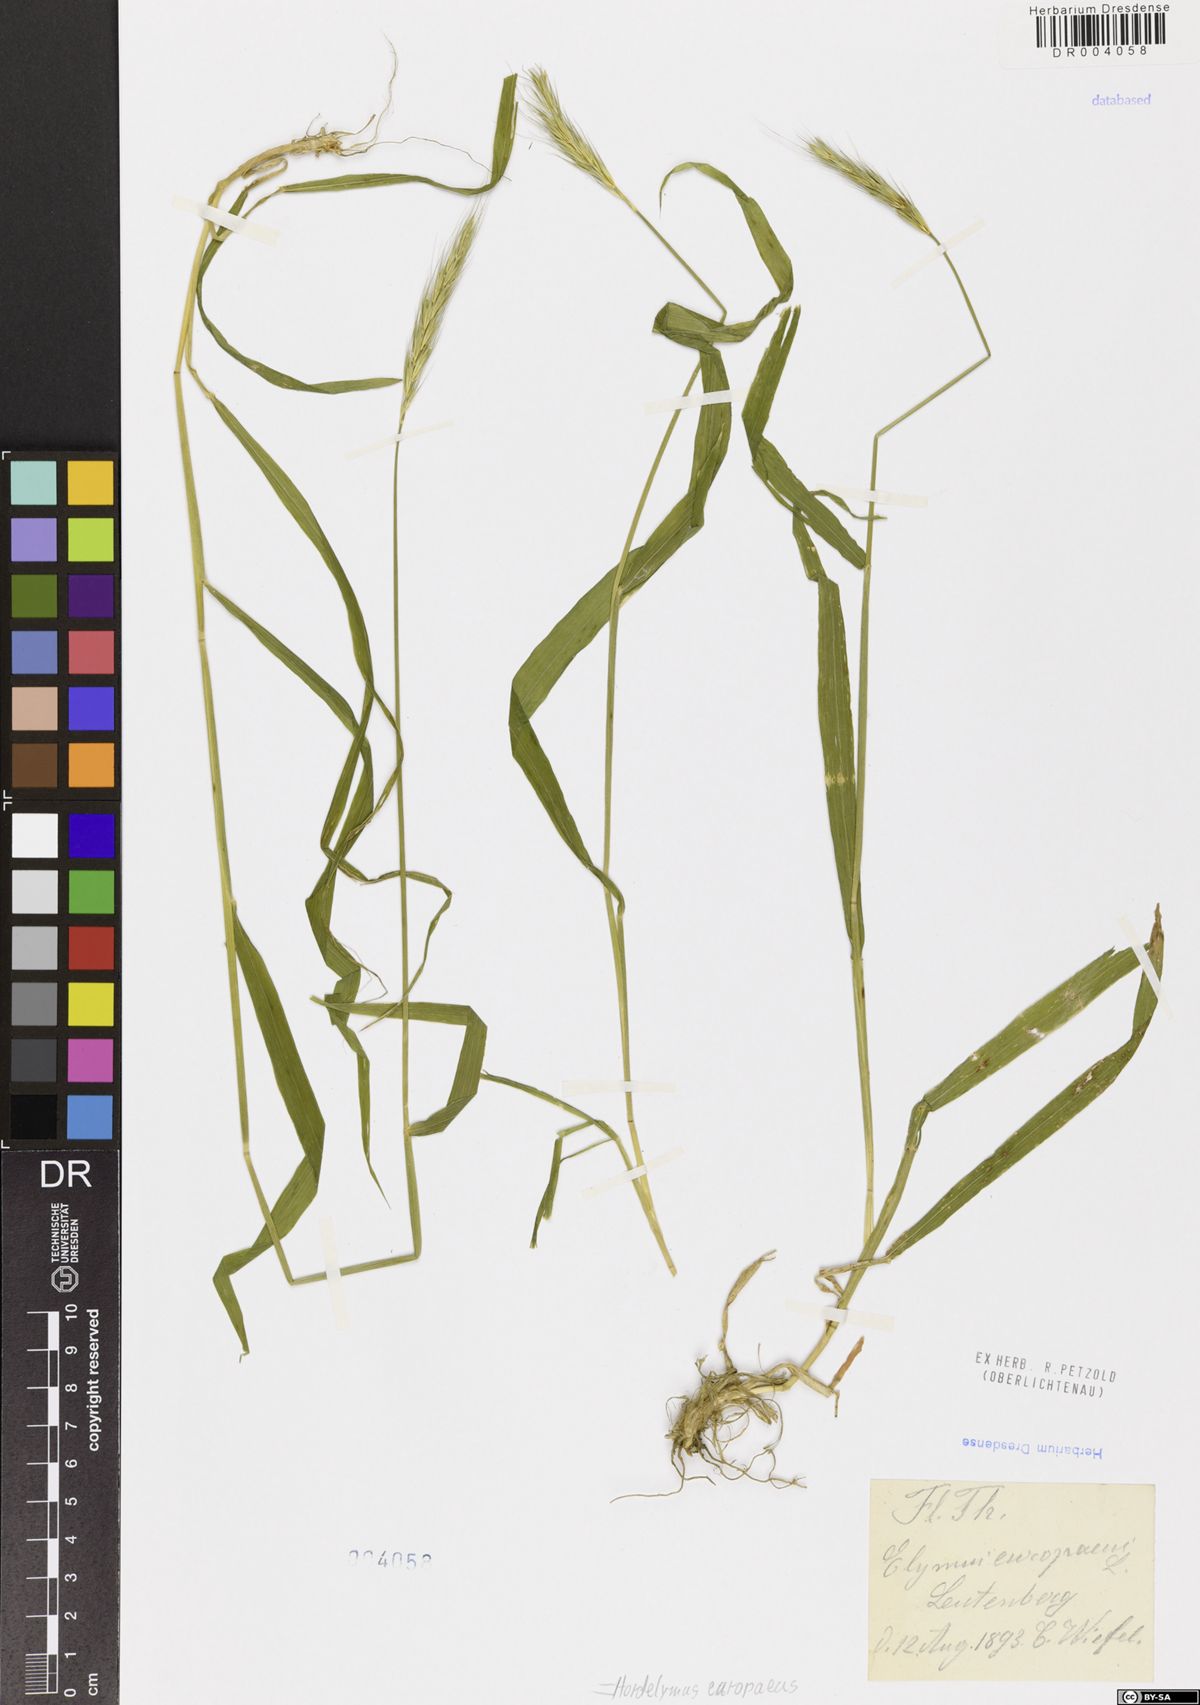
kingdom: Plantae
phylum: Tracheophyta
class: Liliopsida
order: Poales
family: Poaceae
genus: Hordelymus
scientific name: Hordelymus europaeus
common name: Wood-barley
